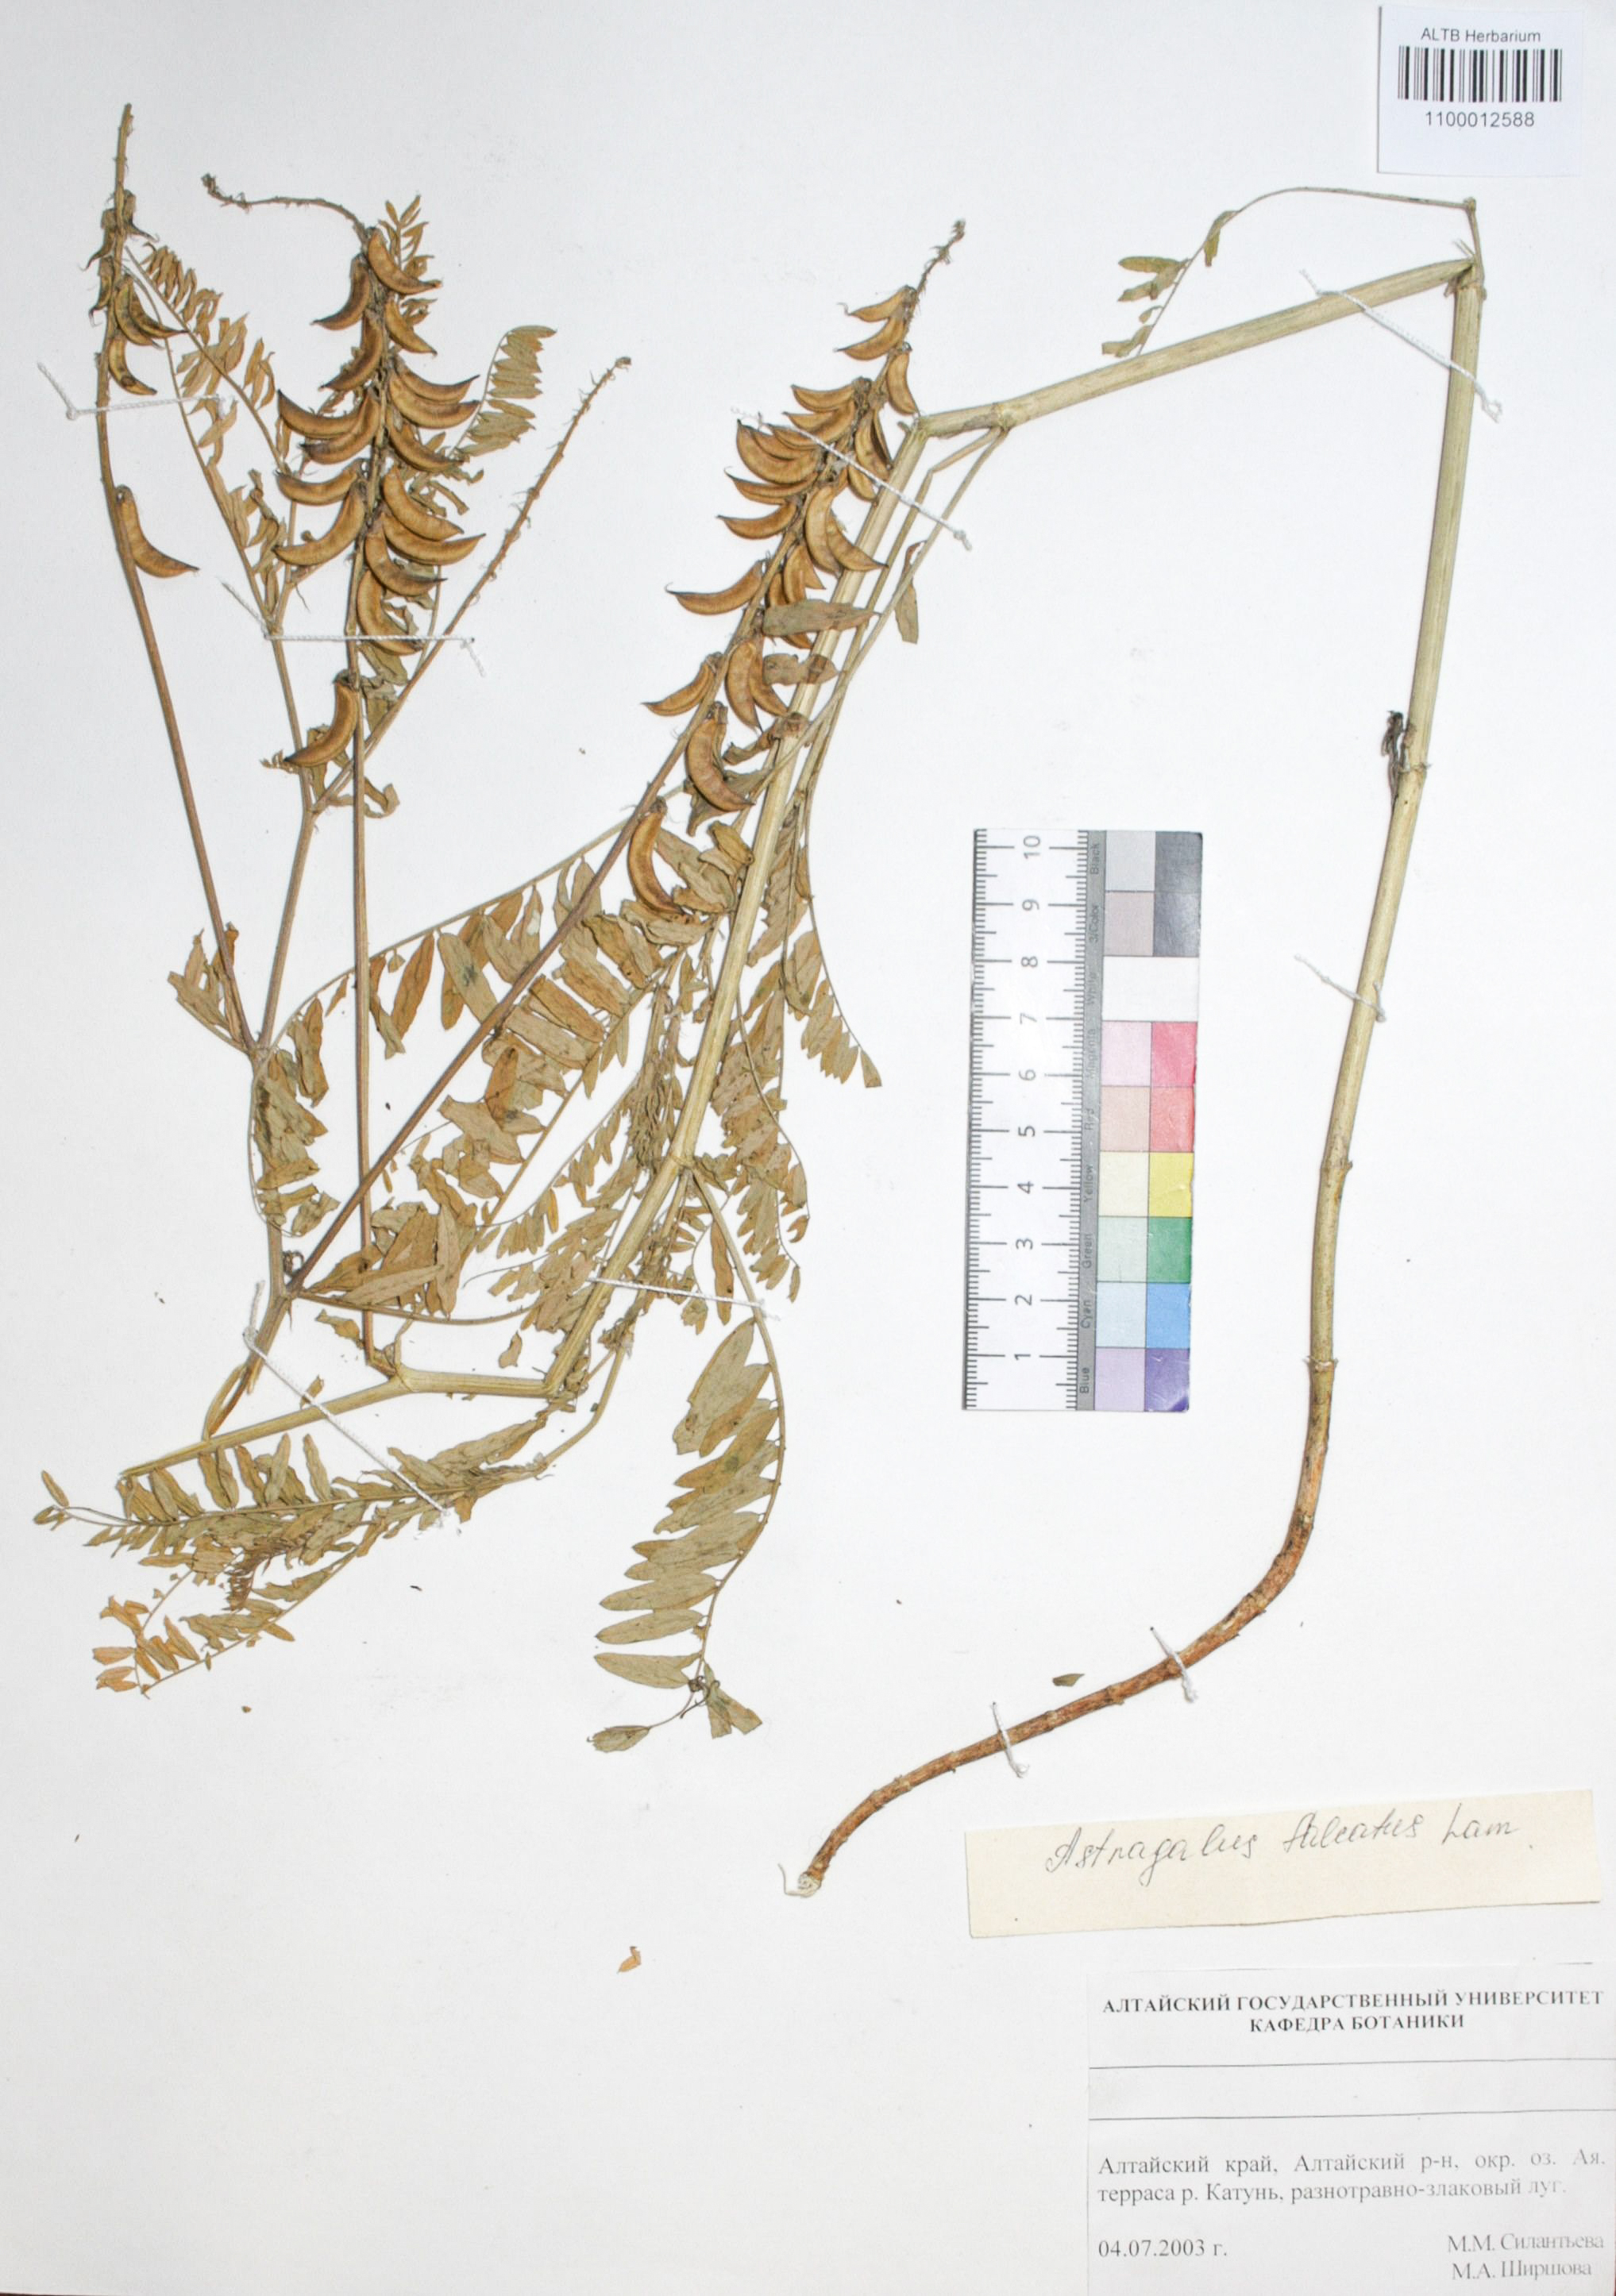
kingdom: Plantae
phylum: Tracheophyta
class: Magnoliopsida
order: Fabales
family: Fabaceae
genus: Astragalus
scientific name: Astragalus falcatus
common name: Russian sickle milk-vetch
